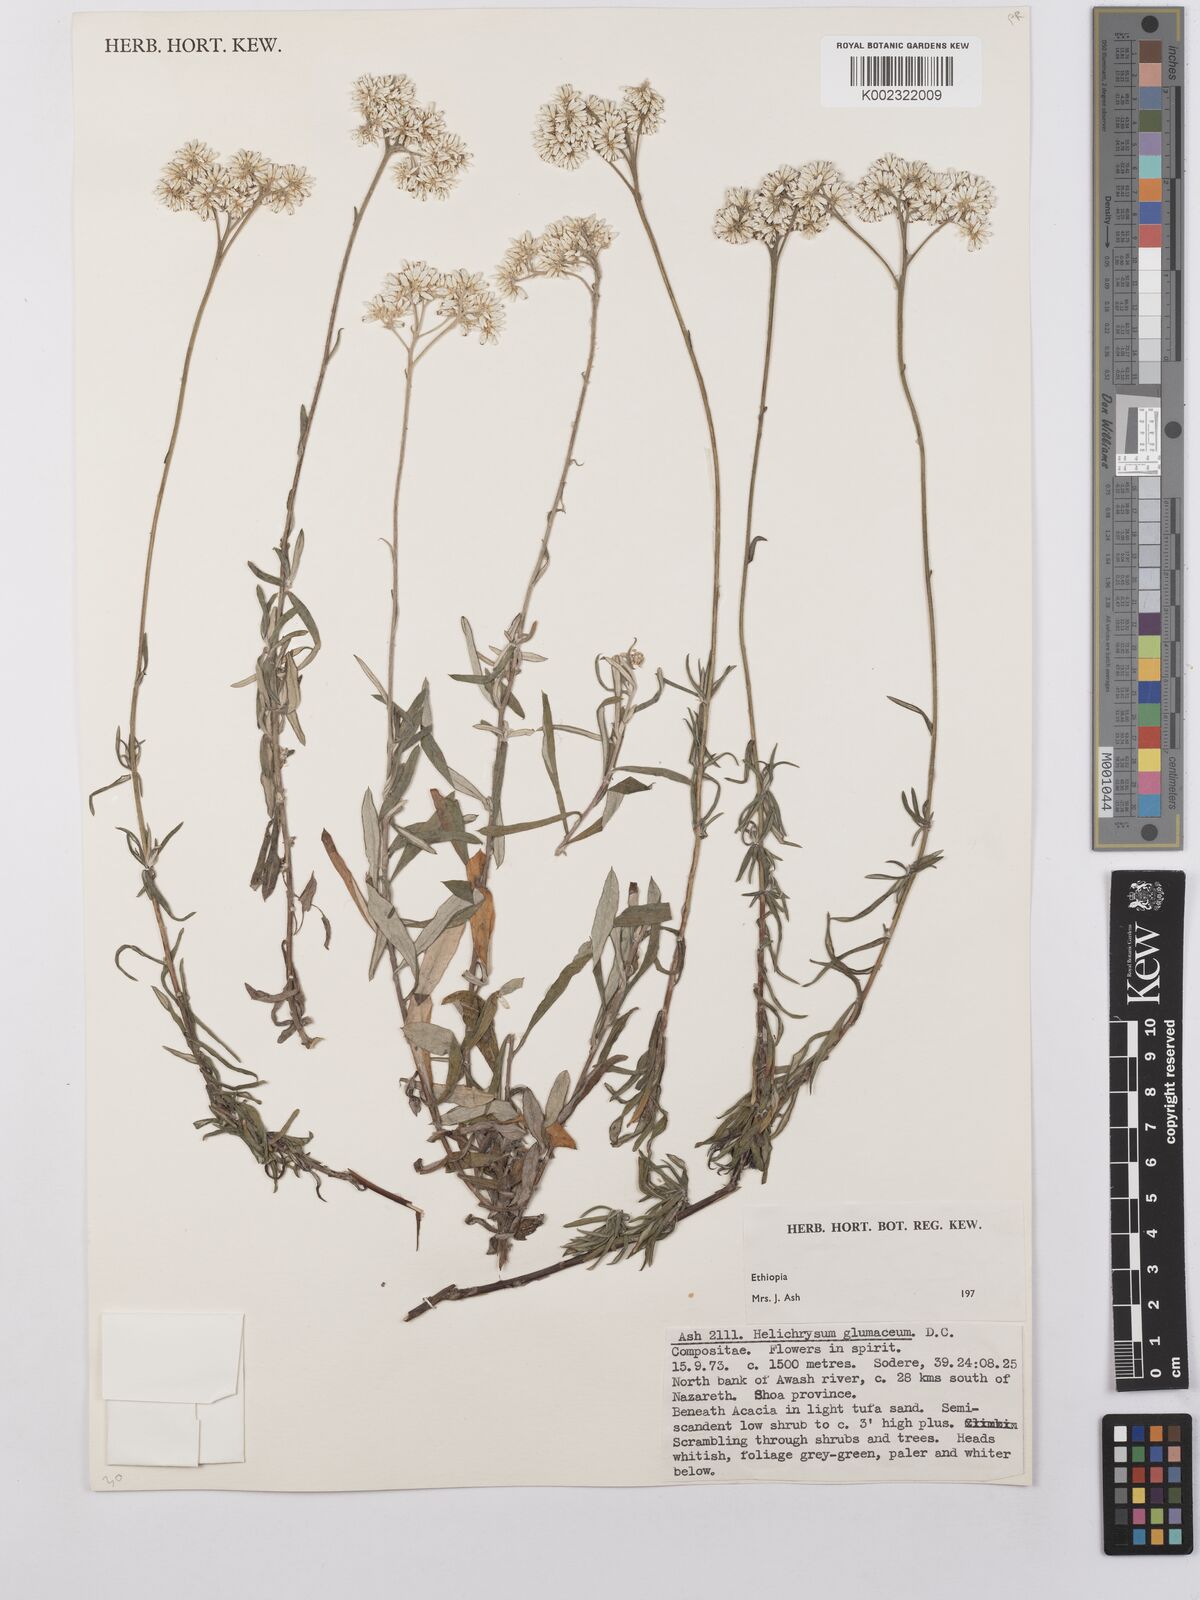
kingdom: Plantae
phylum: Tracheophyta
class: Magnoliopsida
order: Asterales
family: Asteraceae
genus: Helichrysum
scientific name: Helichrysum glumaceum
